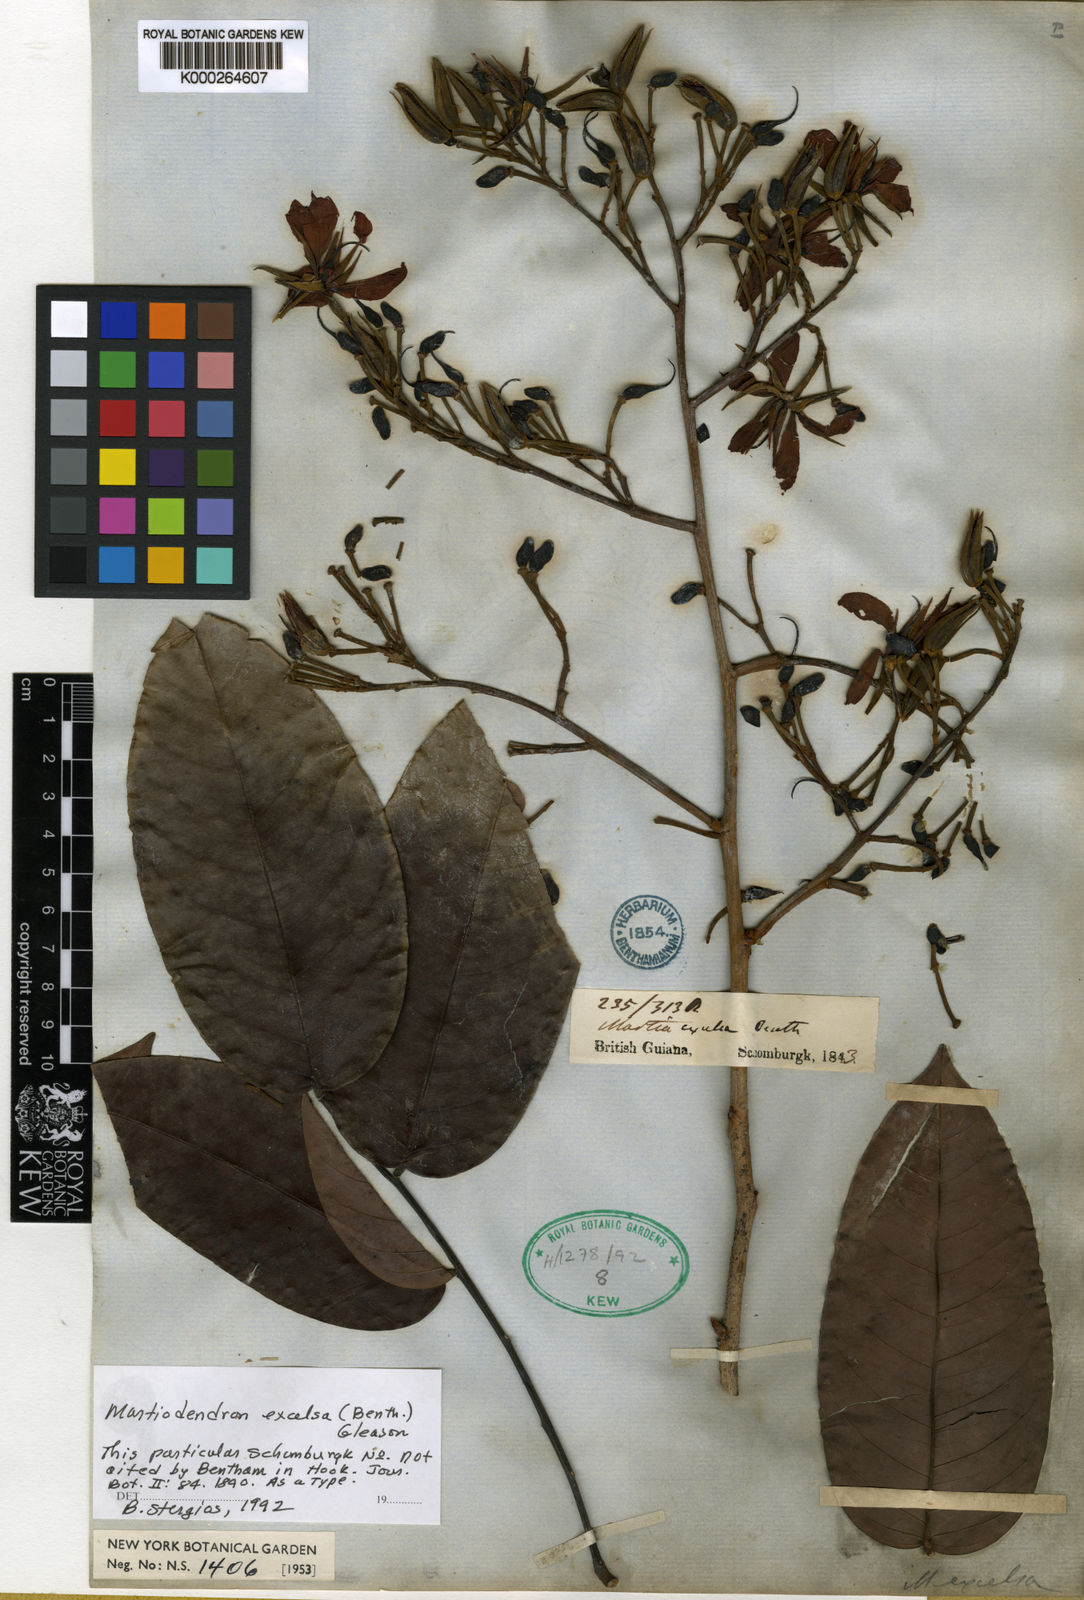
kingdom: Plantae
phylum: Tracheophyta
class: Magnoliopsida
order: Fabales
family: Fabaceae
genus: Martiodendron
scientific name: Martiodendron excelsum
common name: Tatabuballi
